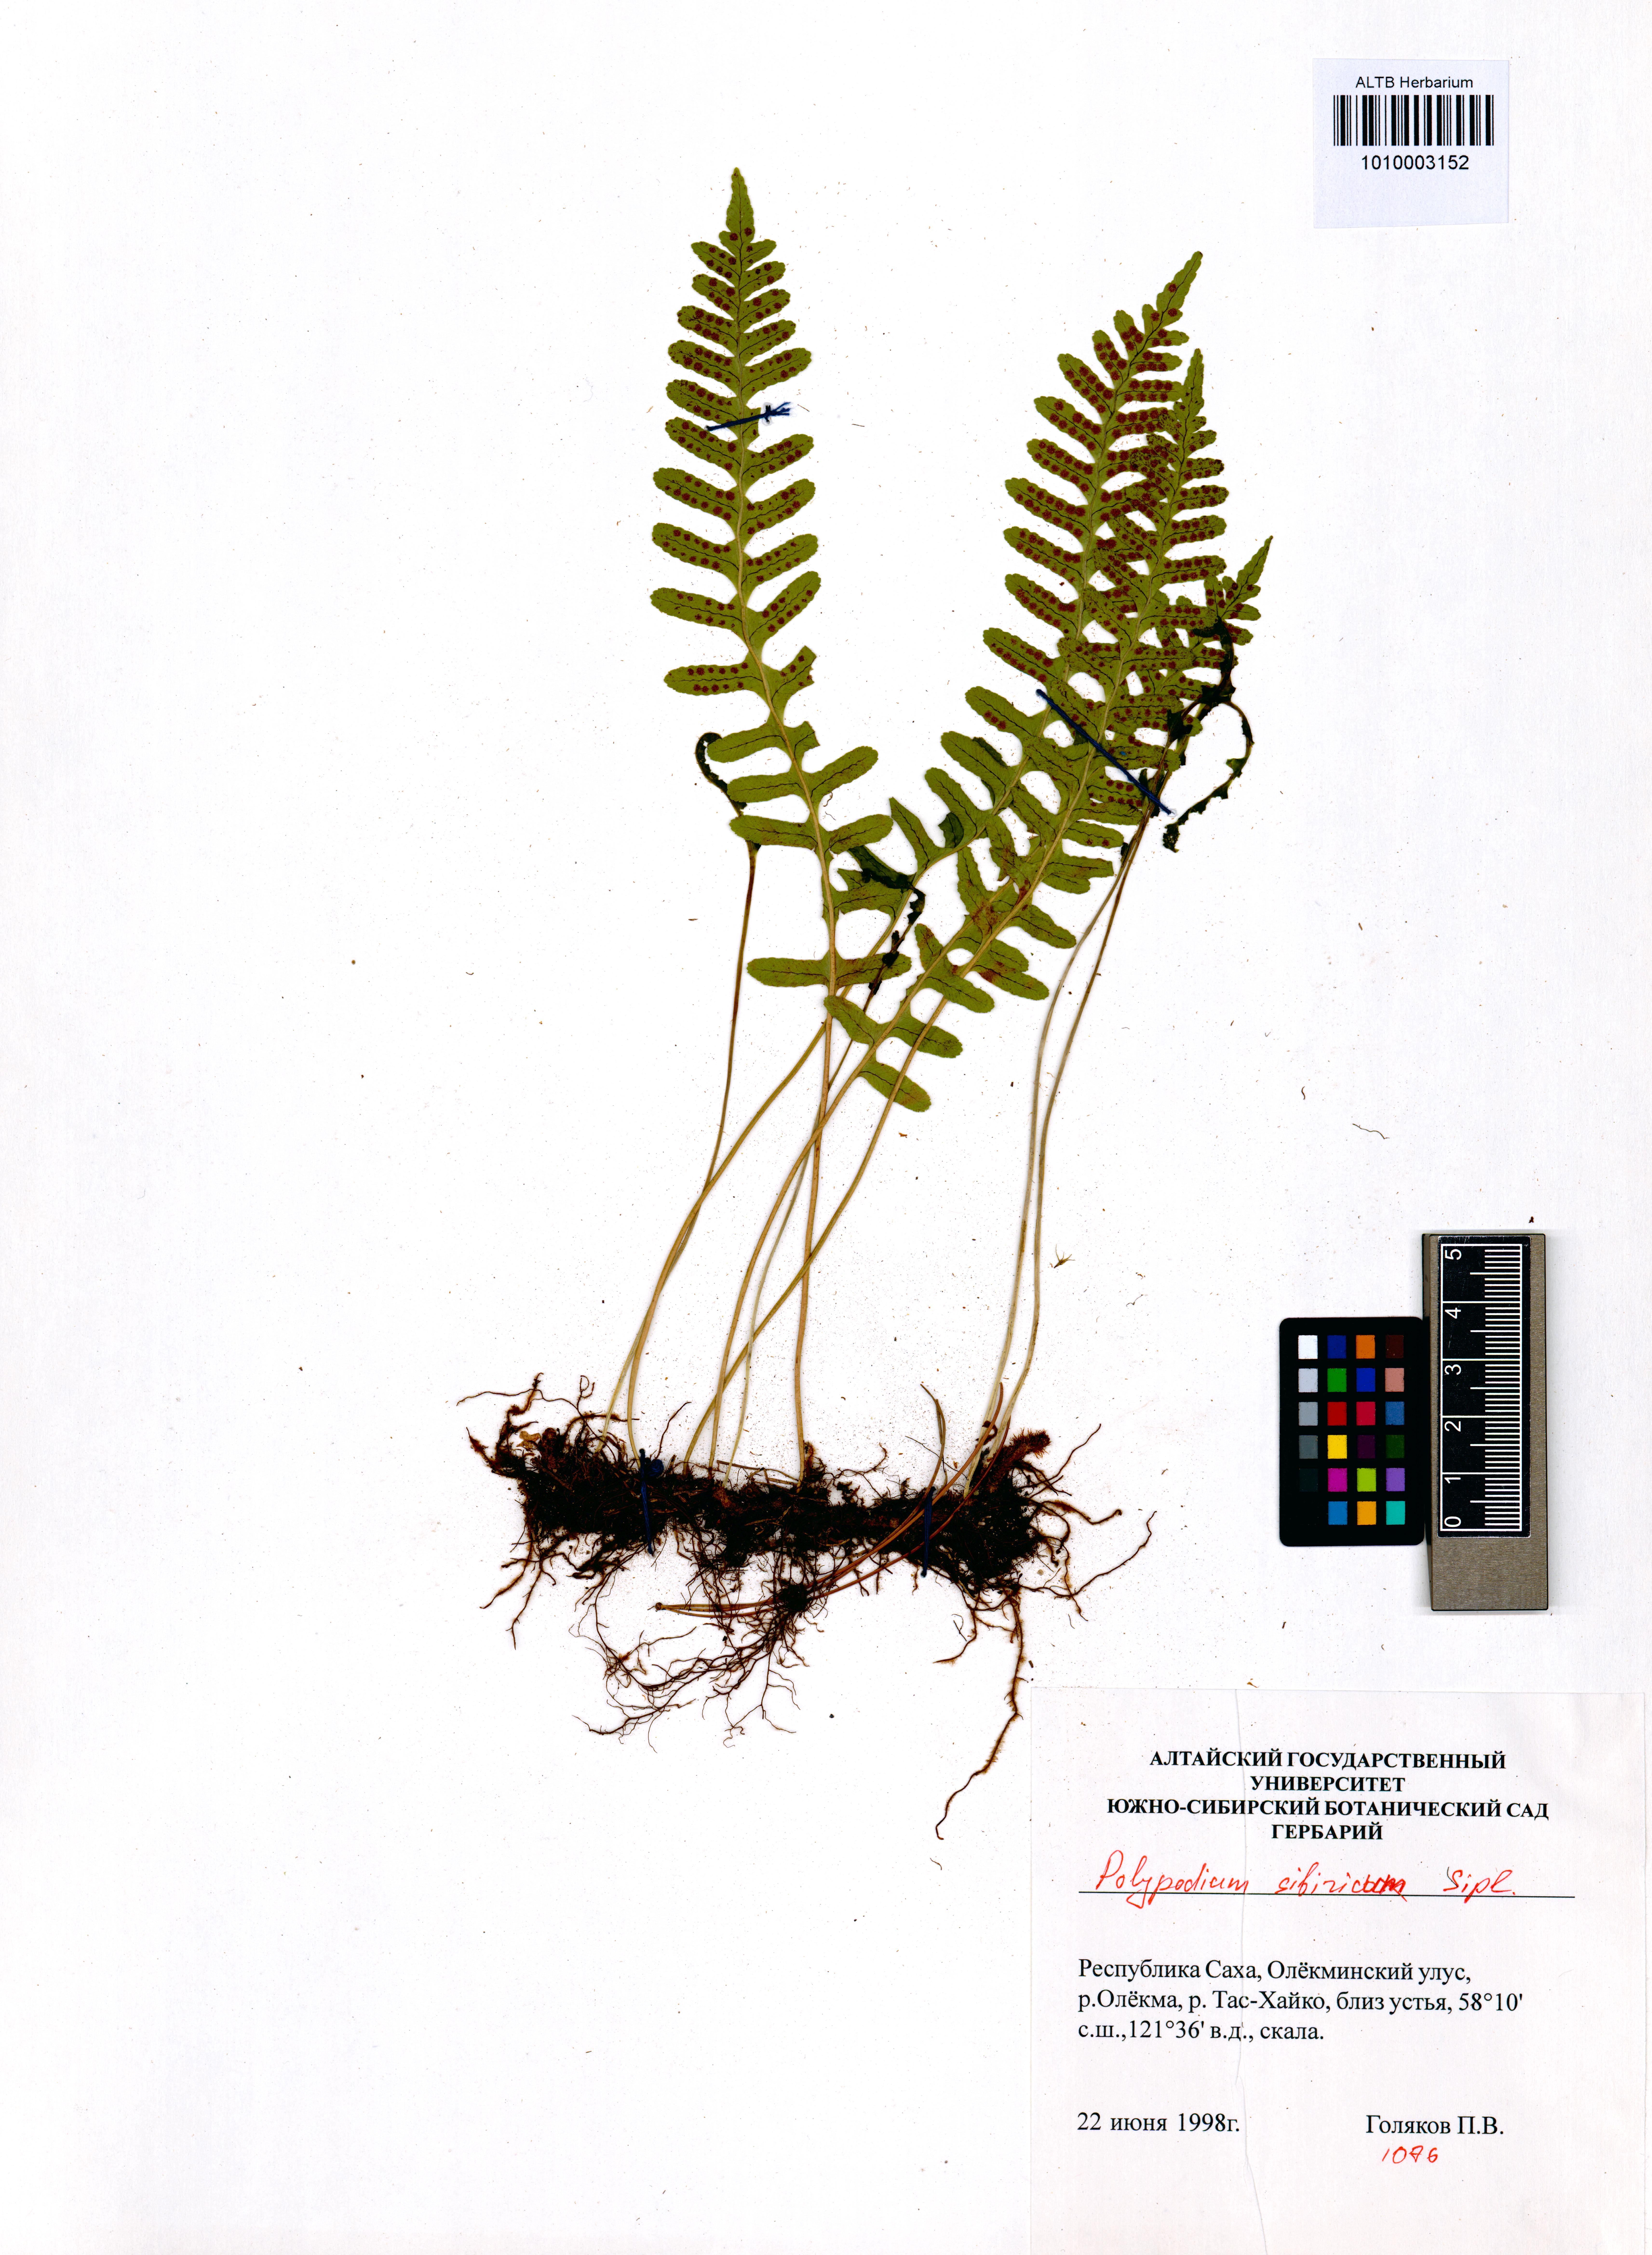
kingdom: Plantae
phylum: Tracheophyta
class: Polypodiopsida
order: Polypodiales
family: Polypodiaceae
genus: Polypodium
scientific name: Polypodium sibiricum
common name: Siberian polypody
